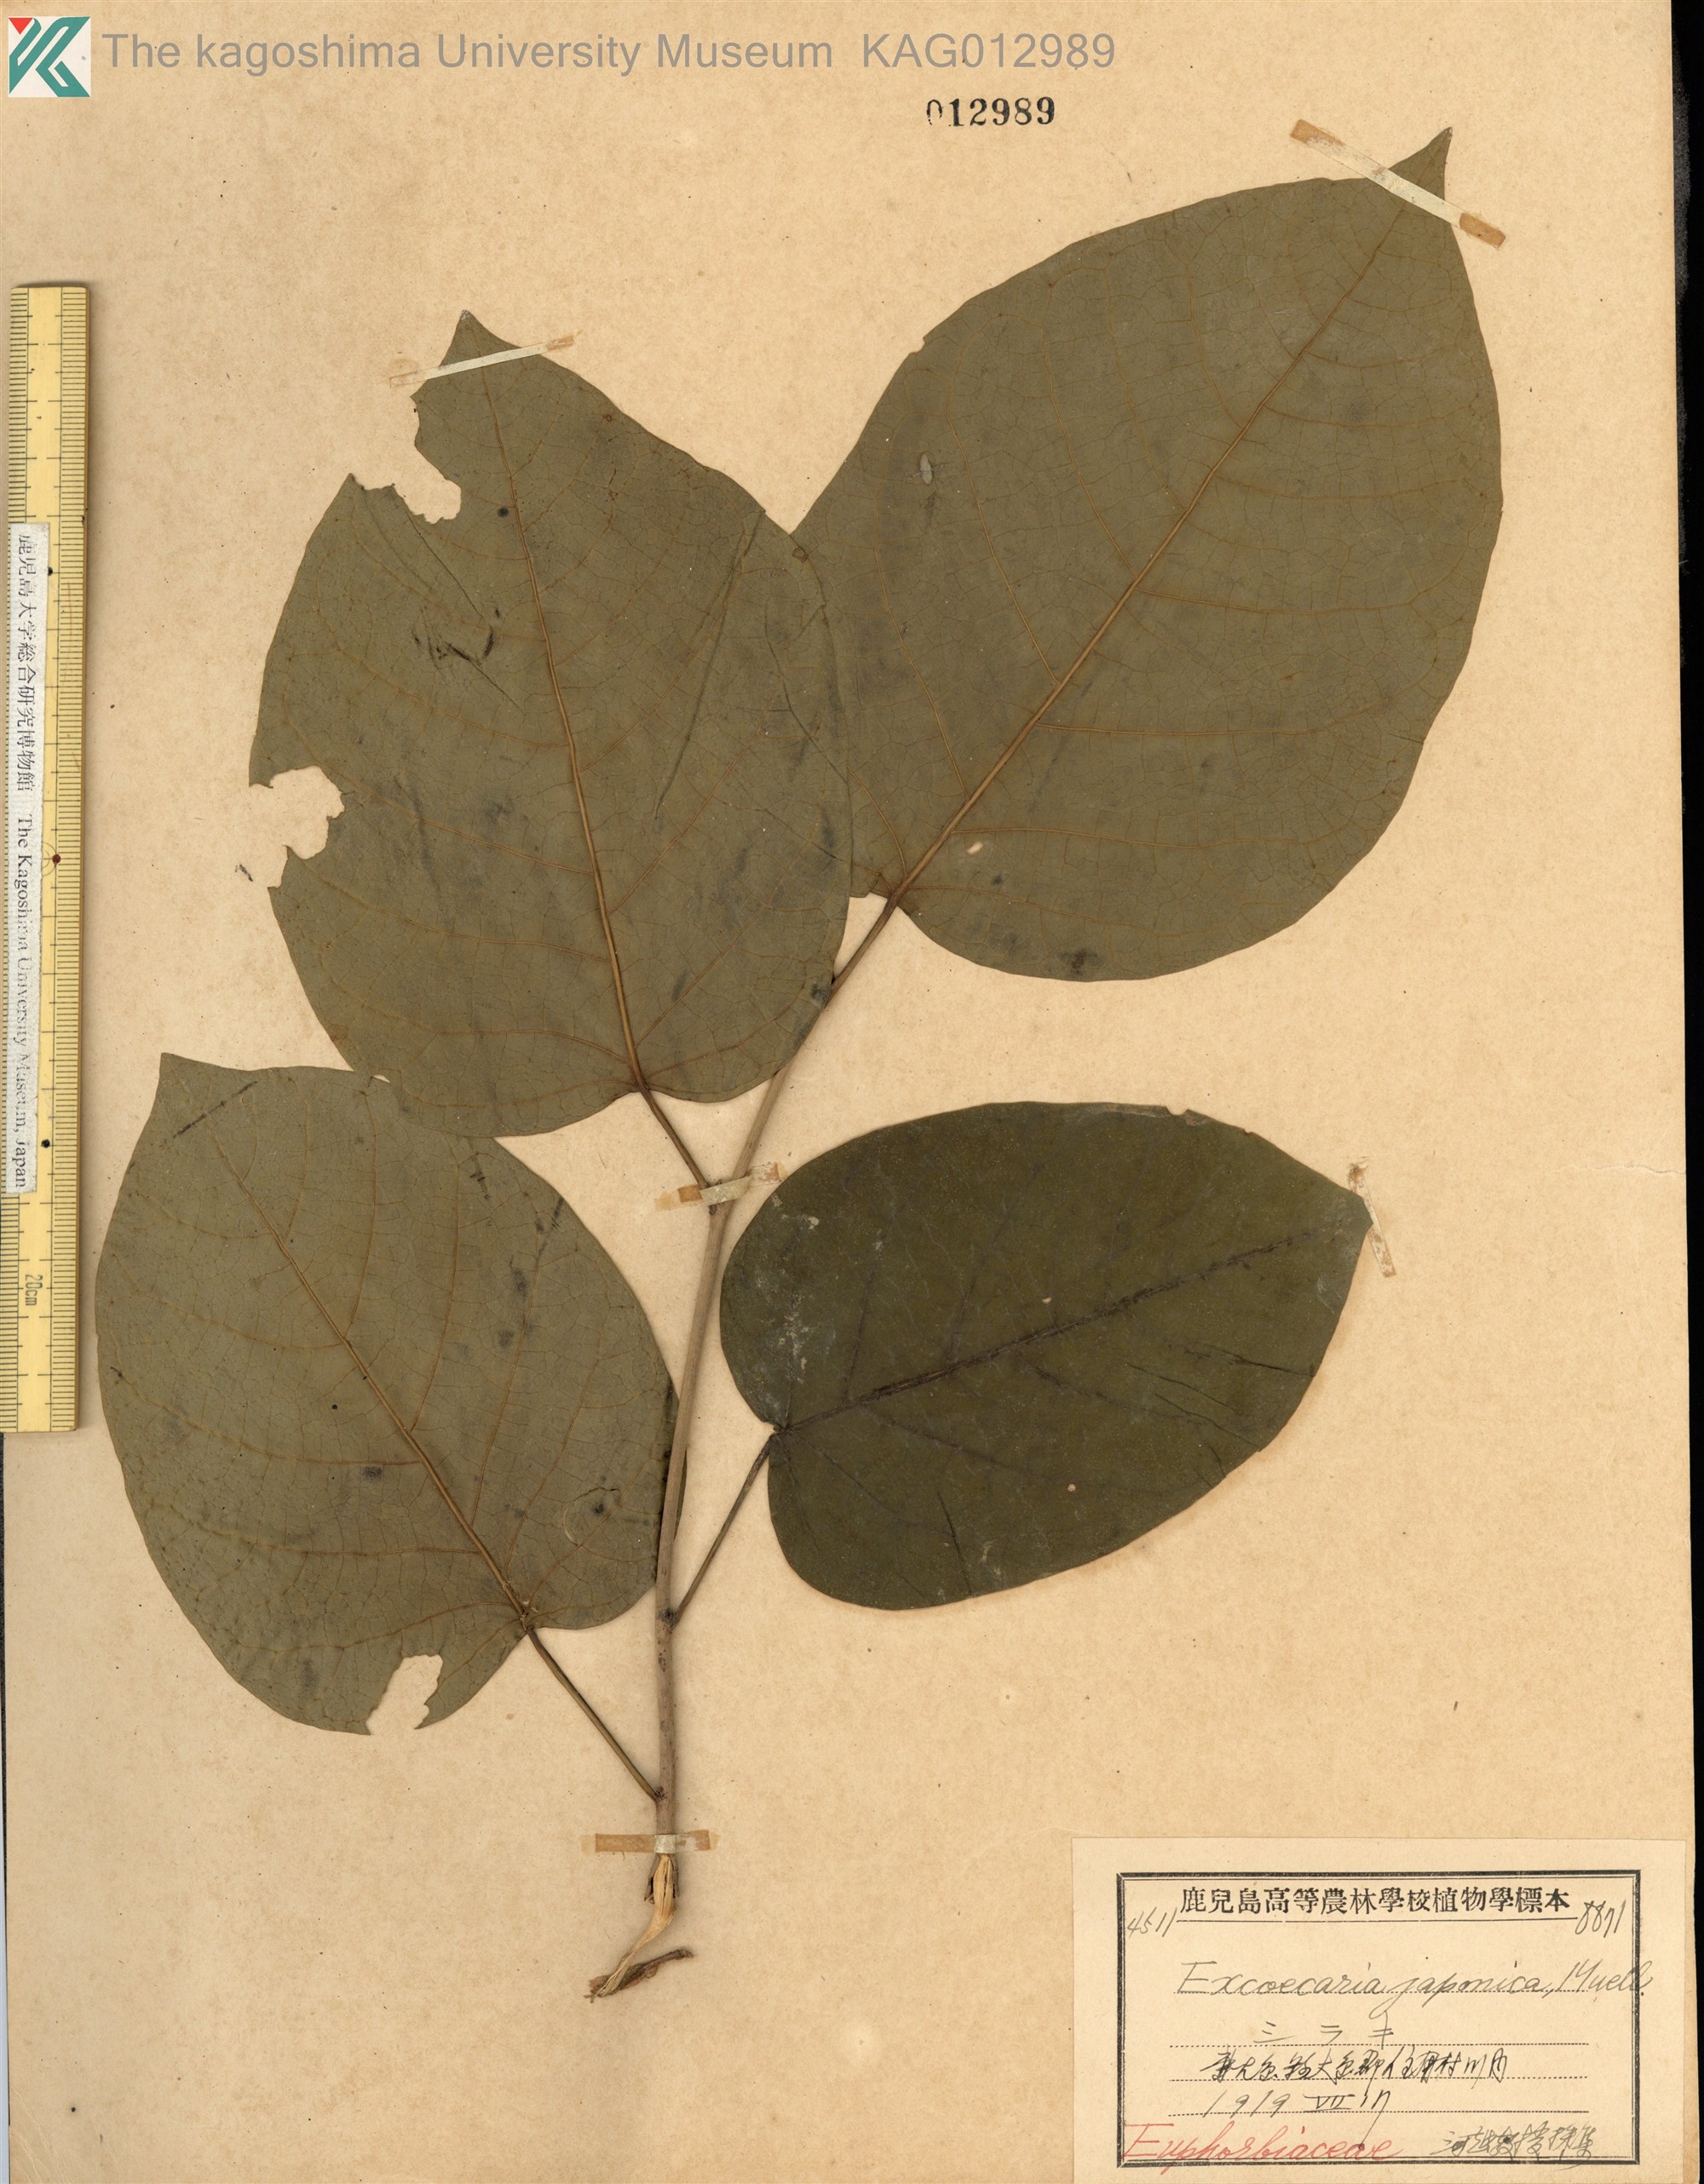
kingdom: Plantae
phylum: Tracheophyta
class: Magnoliopsida
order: Malpighiales
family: Euphorbiaceae
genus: Neoshirakia
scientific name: Neoshirakia japonica
